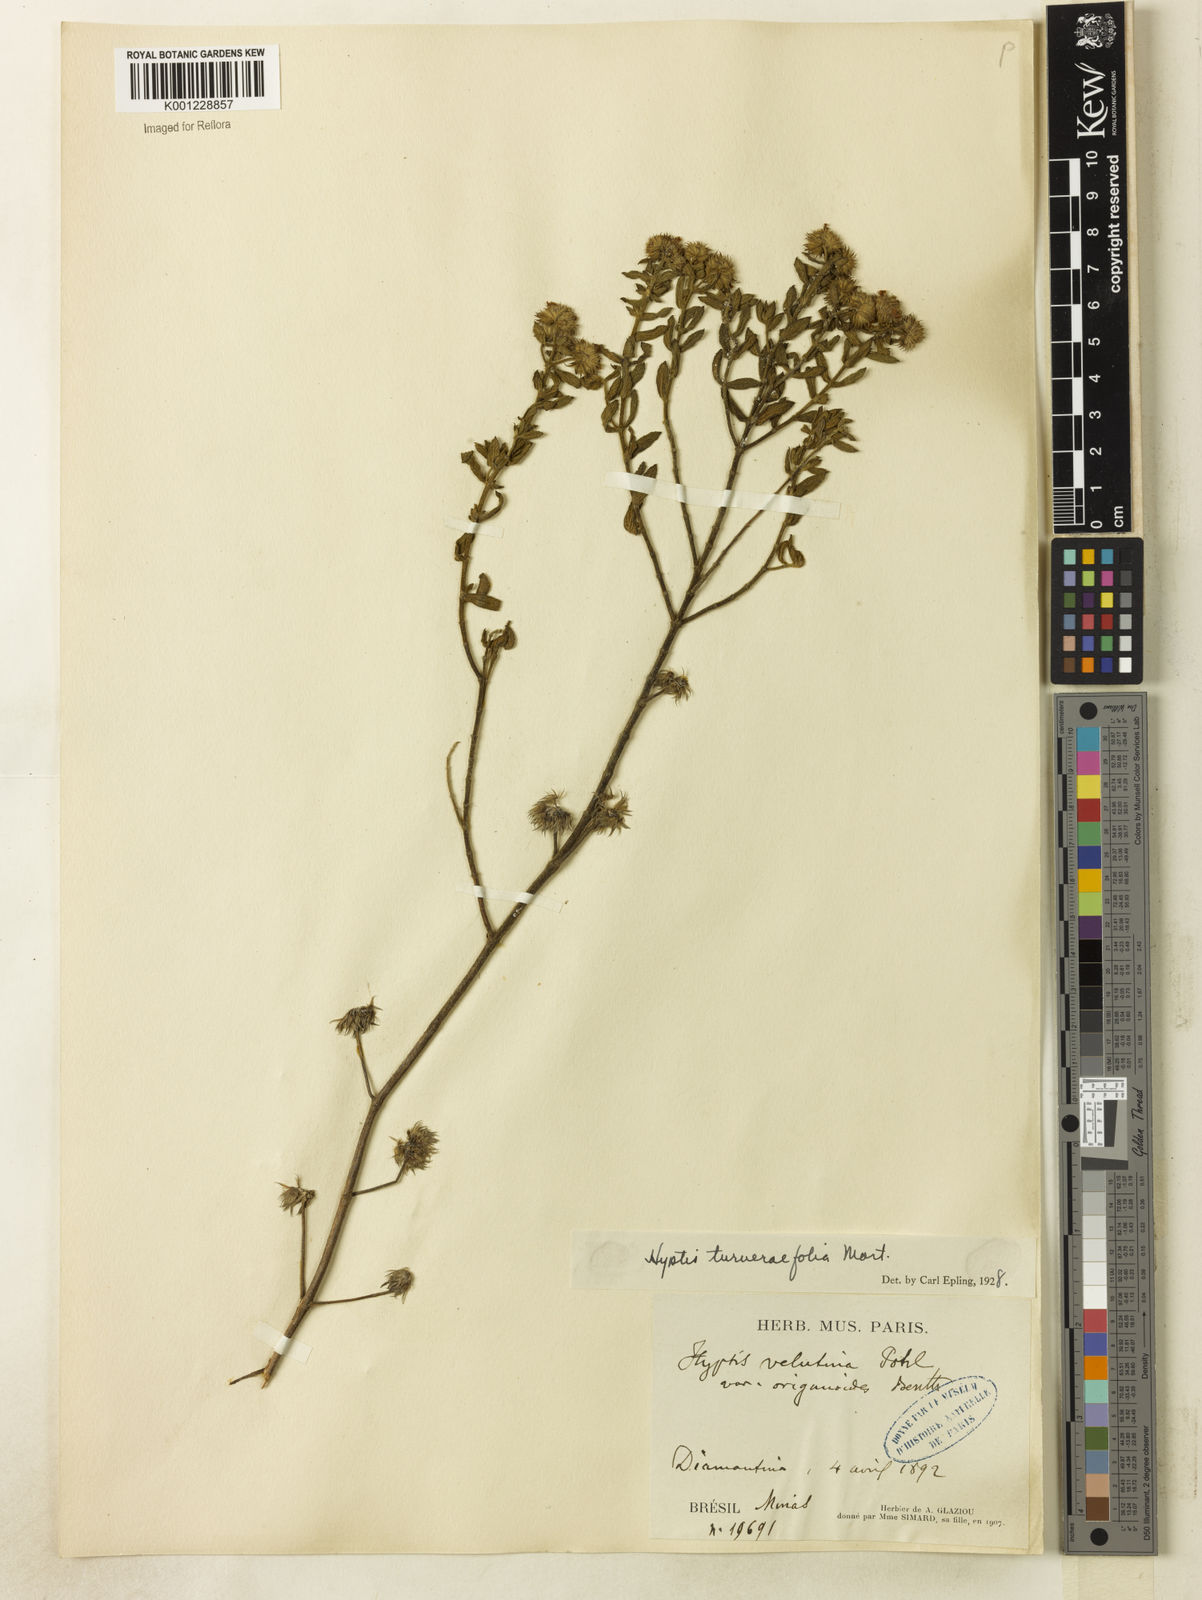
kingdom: Plantae
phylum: Tracheophyta
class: Magnoliopsida
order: Lamiales
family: Lamiaceae
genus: Hyptis
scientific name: Hyptis turnerifolia
